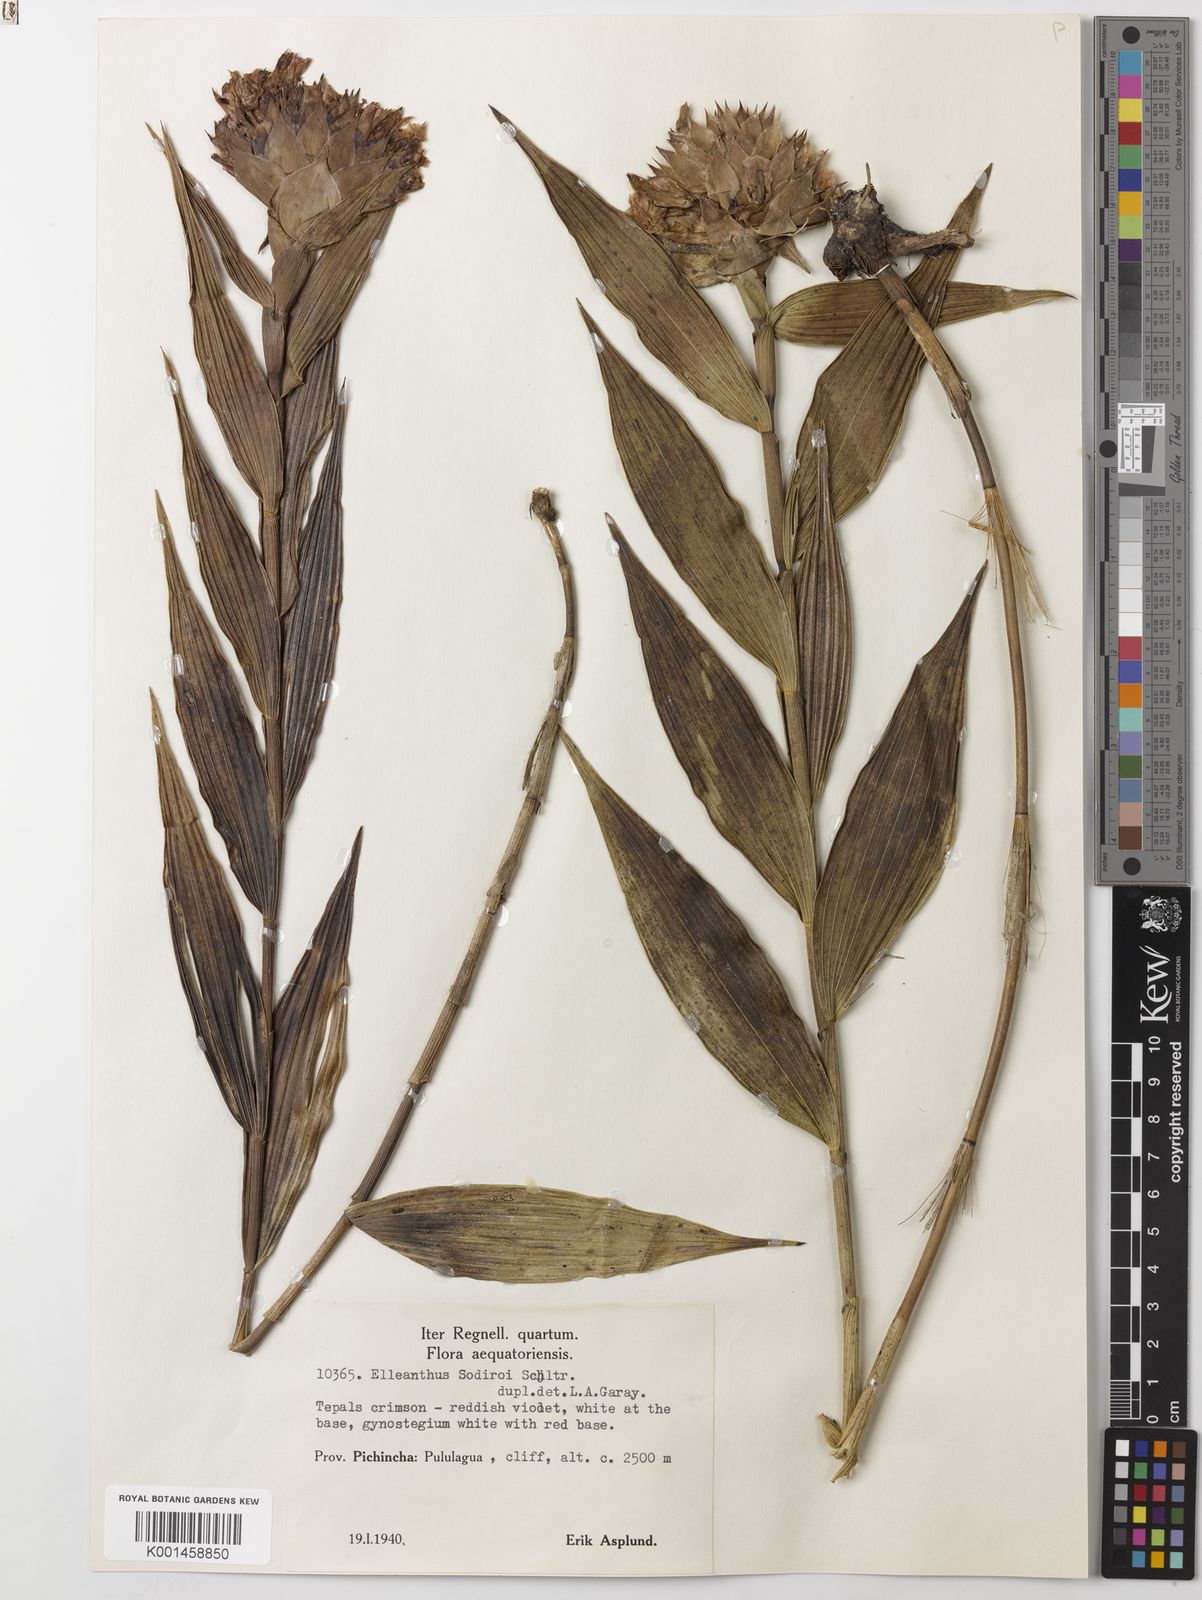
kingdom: Plantae
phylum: Tracheophyta
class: Liliopsida
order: Asparagales
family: Orchidaceae
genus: Elleanthus
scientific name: Elleanthus sodiroi
